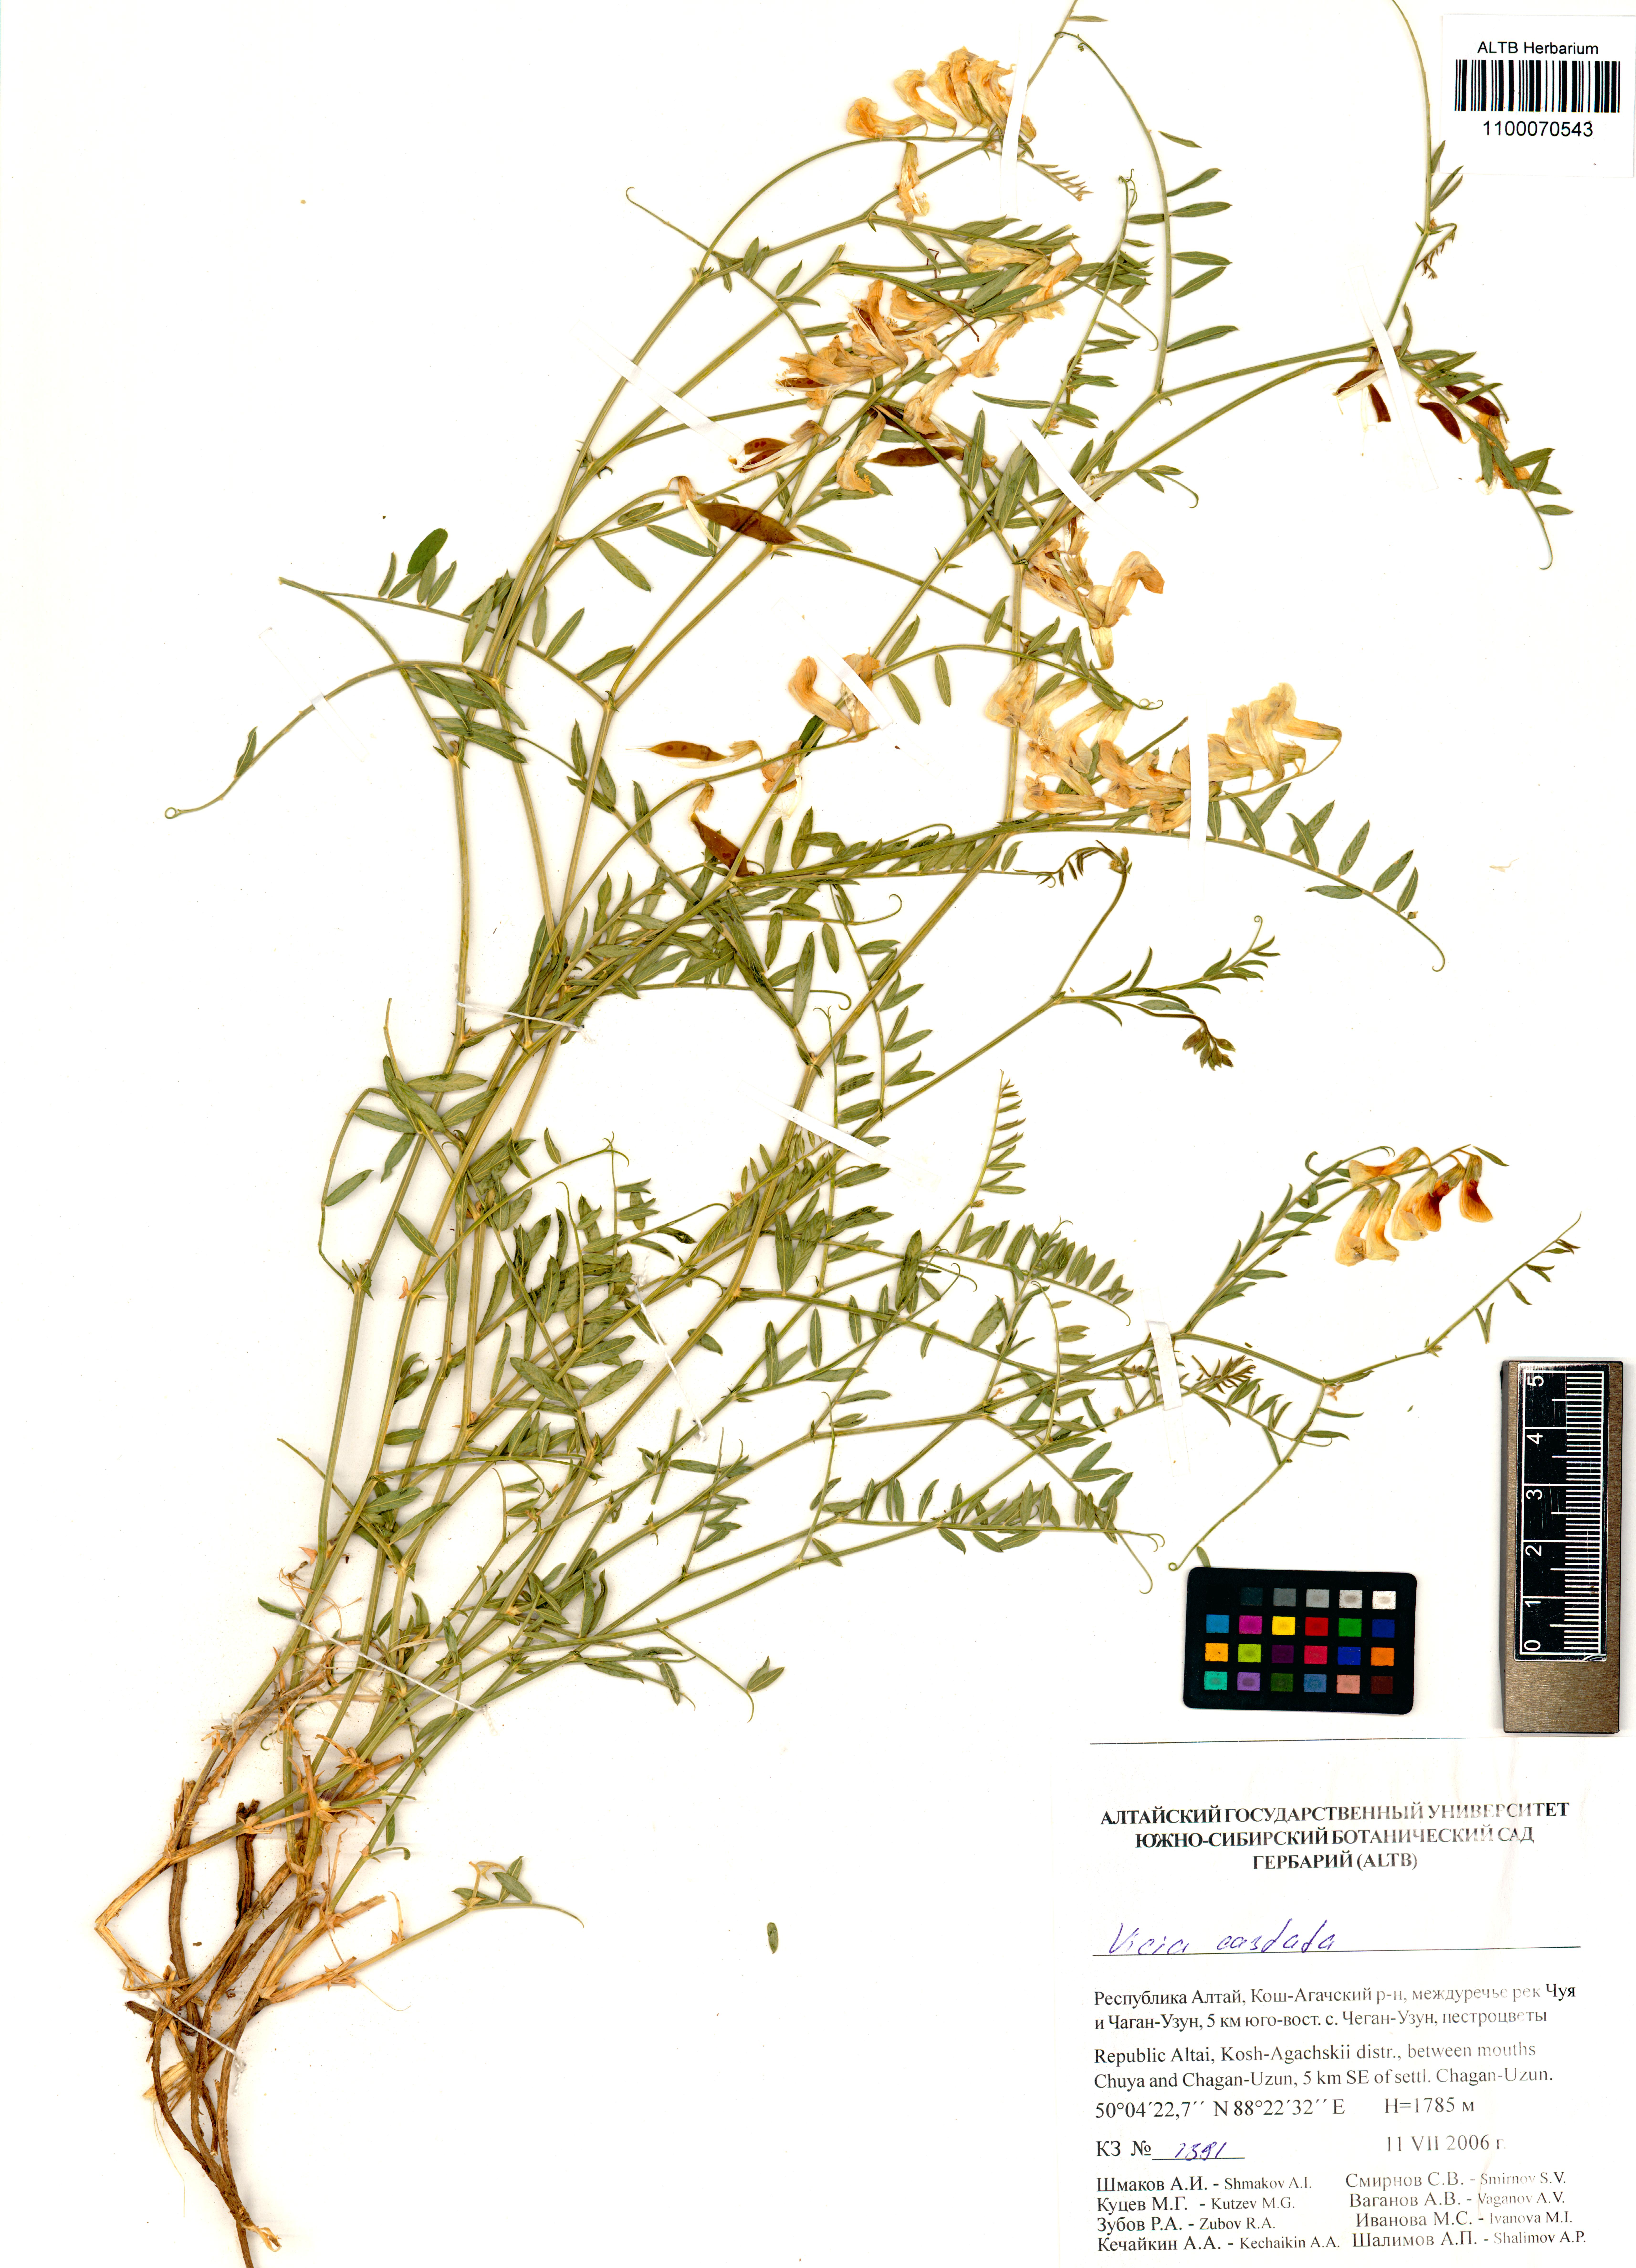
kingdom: Plantae
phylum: Tracheophyta
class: Magnoliopsida
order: Fabales
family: Fabaceae
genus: Vicia
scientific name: Vicia costata
